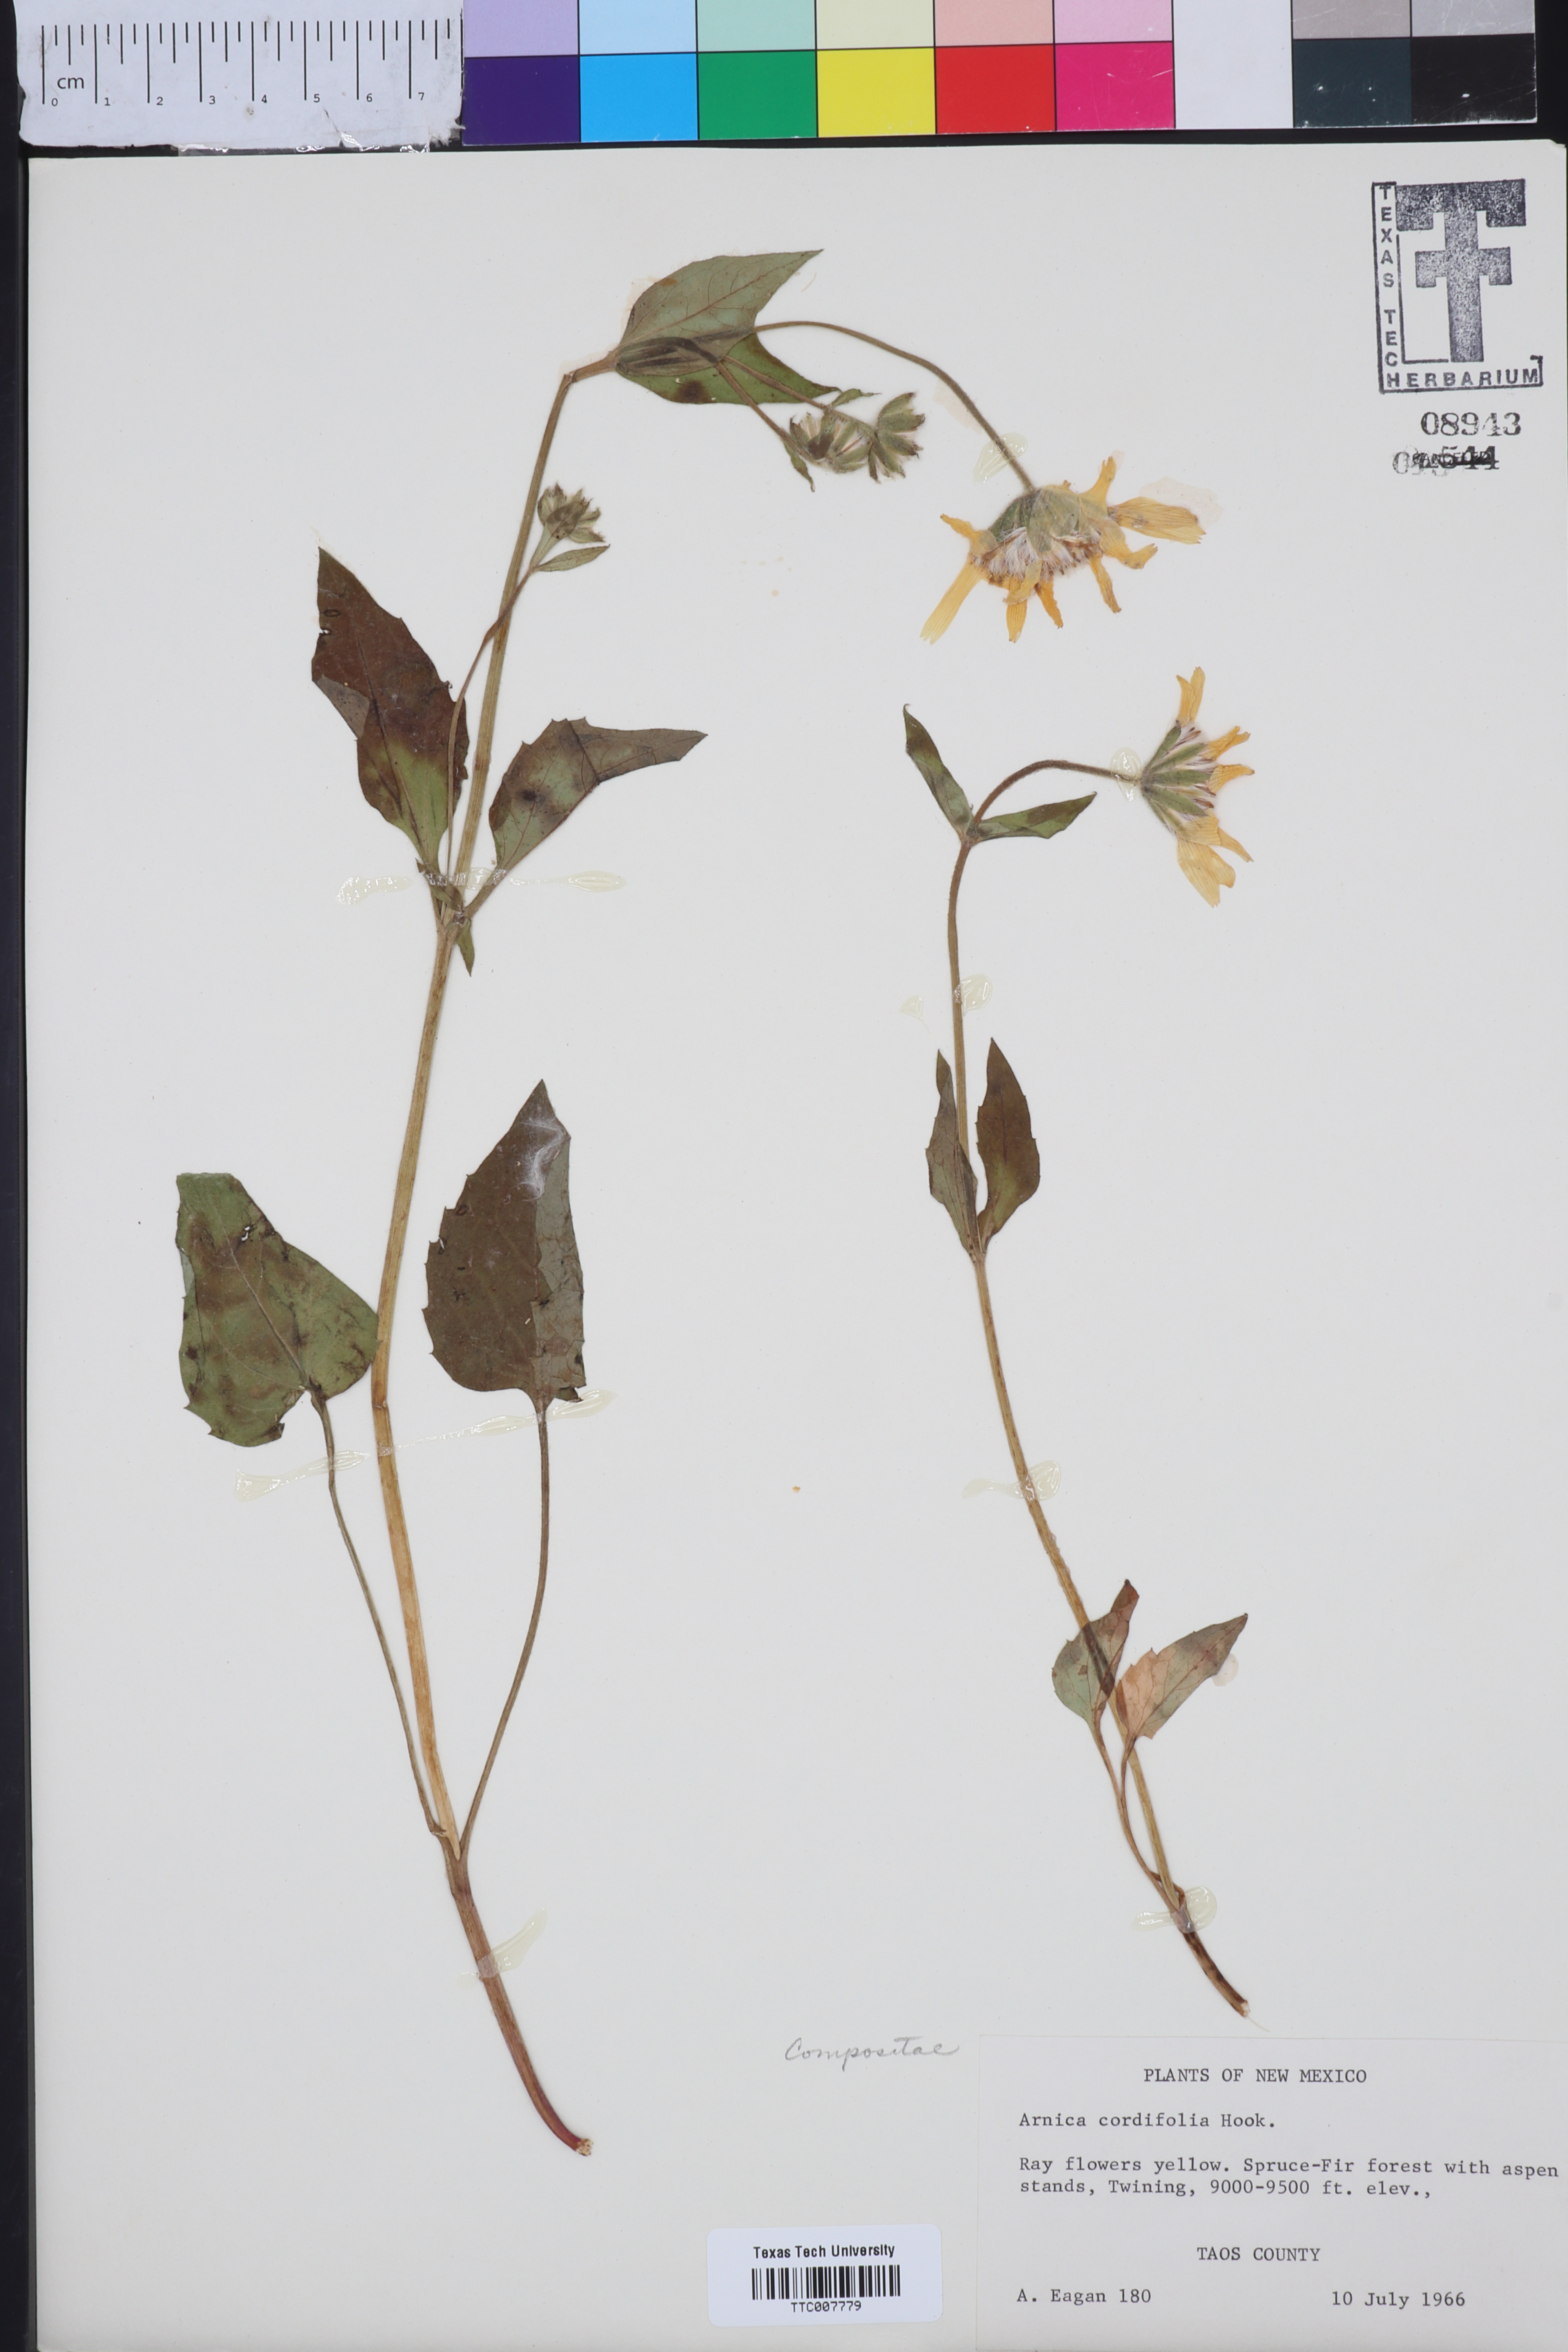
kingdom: Plantae
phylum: Tracheophyta
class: Magnoliopsida
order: Asterales
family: Asteraceae
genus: Arnica
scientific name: Arnica cordifolia
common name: Heart-leaf arnica
